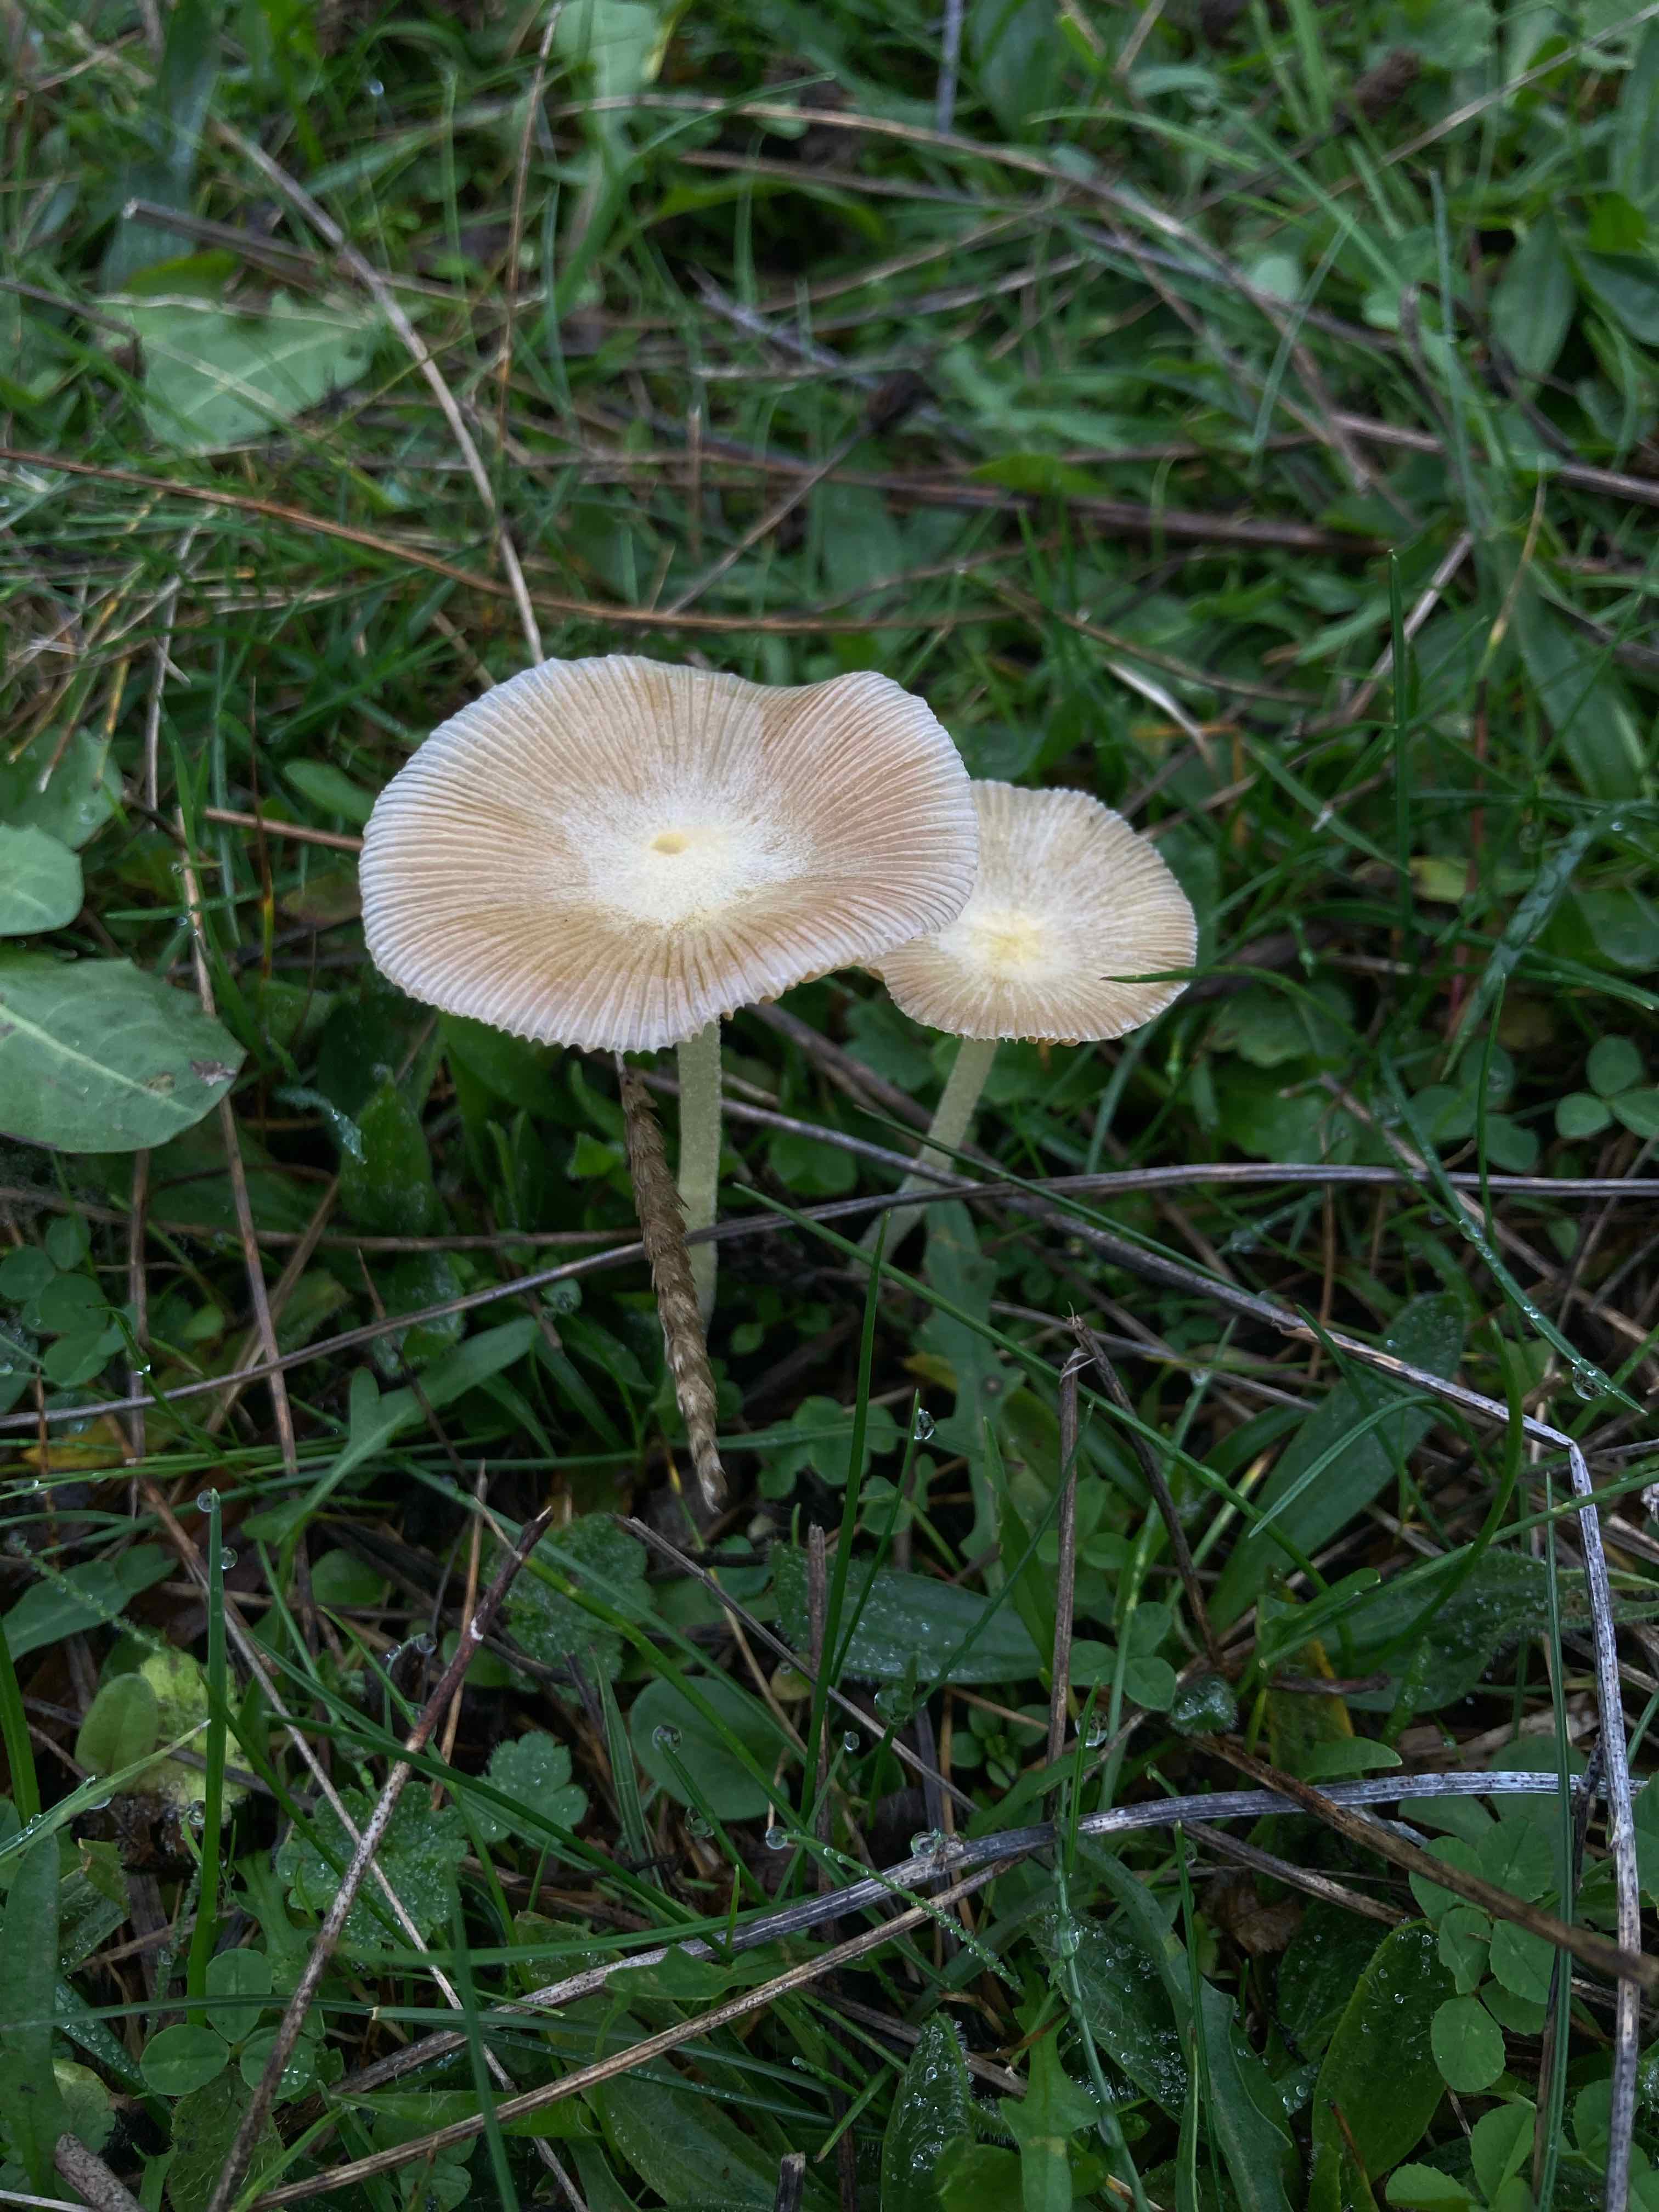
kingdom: Fungi
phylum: Basidiomycota
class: Agaricomycetes
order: Agaricales
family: Bolbitiaceae
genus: Bolbitius
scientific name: Bolbitius titubans
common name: almindelig gulhat
